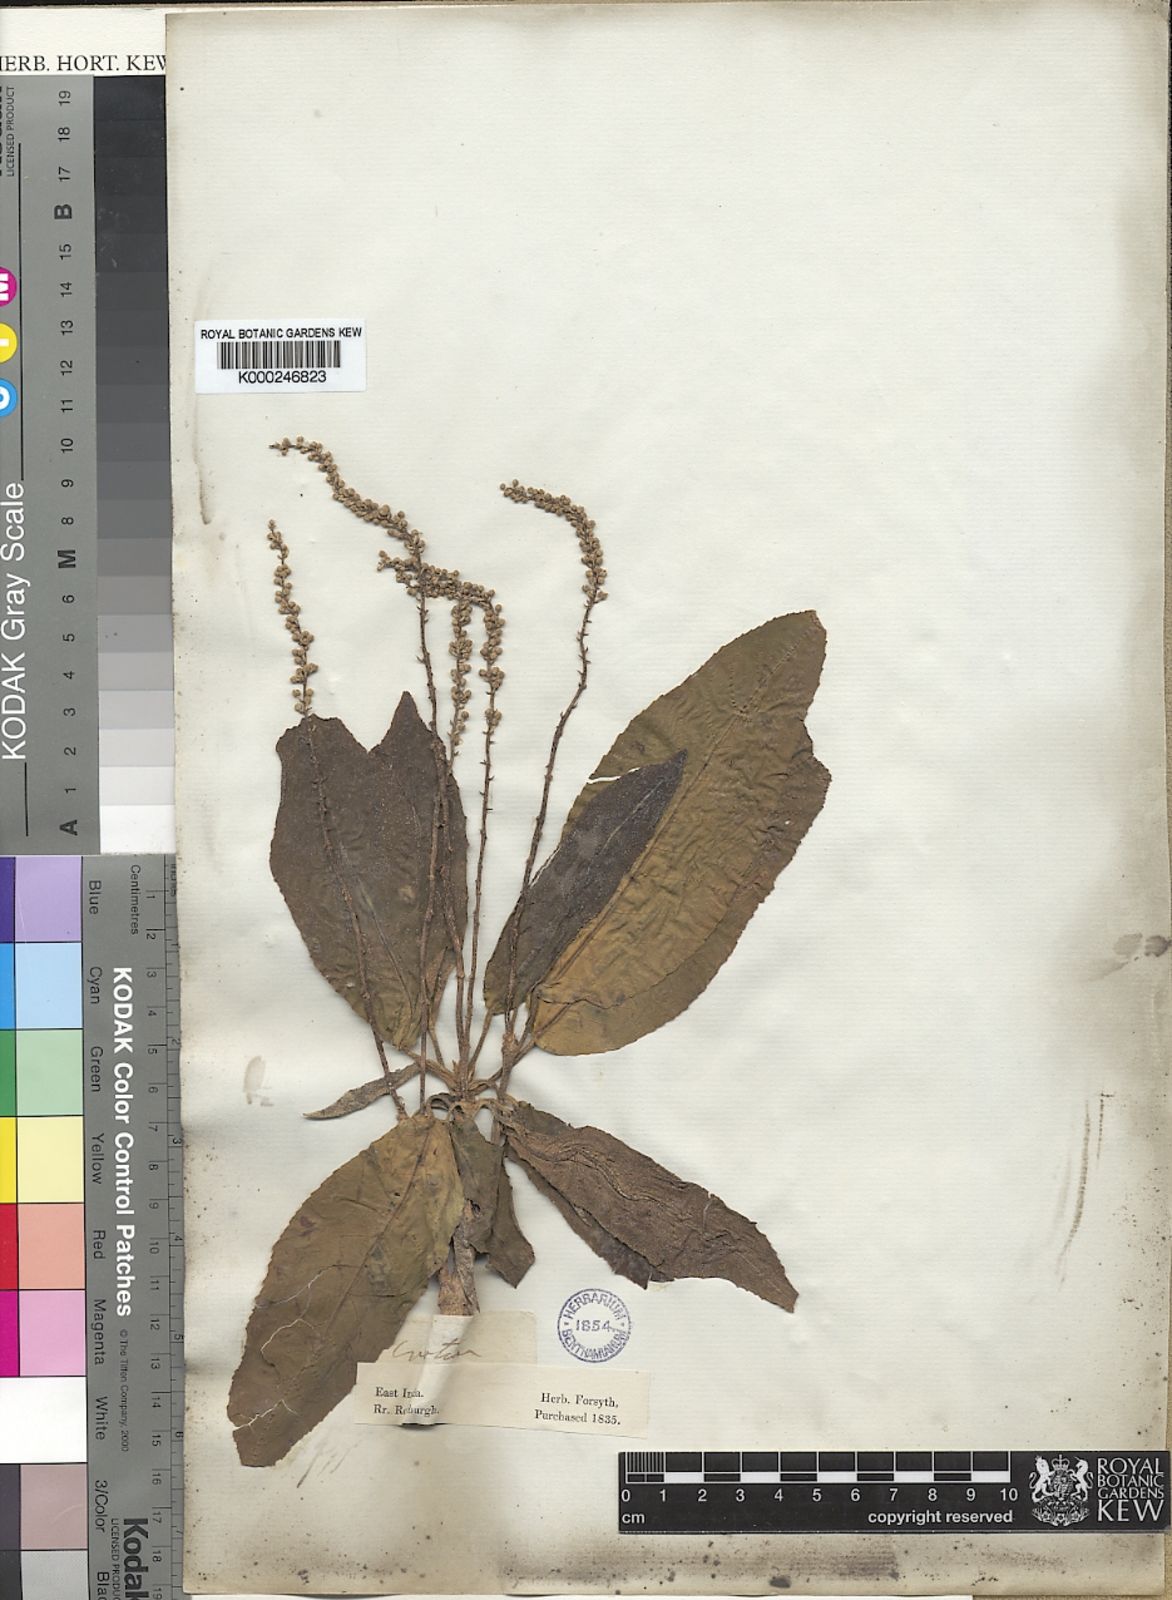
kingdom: Plantae
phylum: Tracheophyta
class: Magnoliopsida
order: Malpighiales
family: Euphorbiaceae
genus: Croton
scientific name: Croton persimilis
